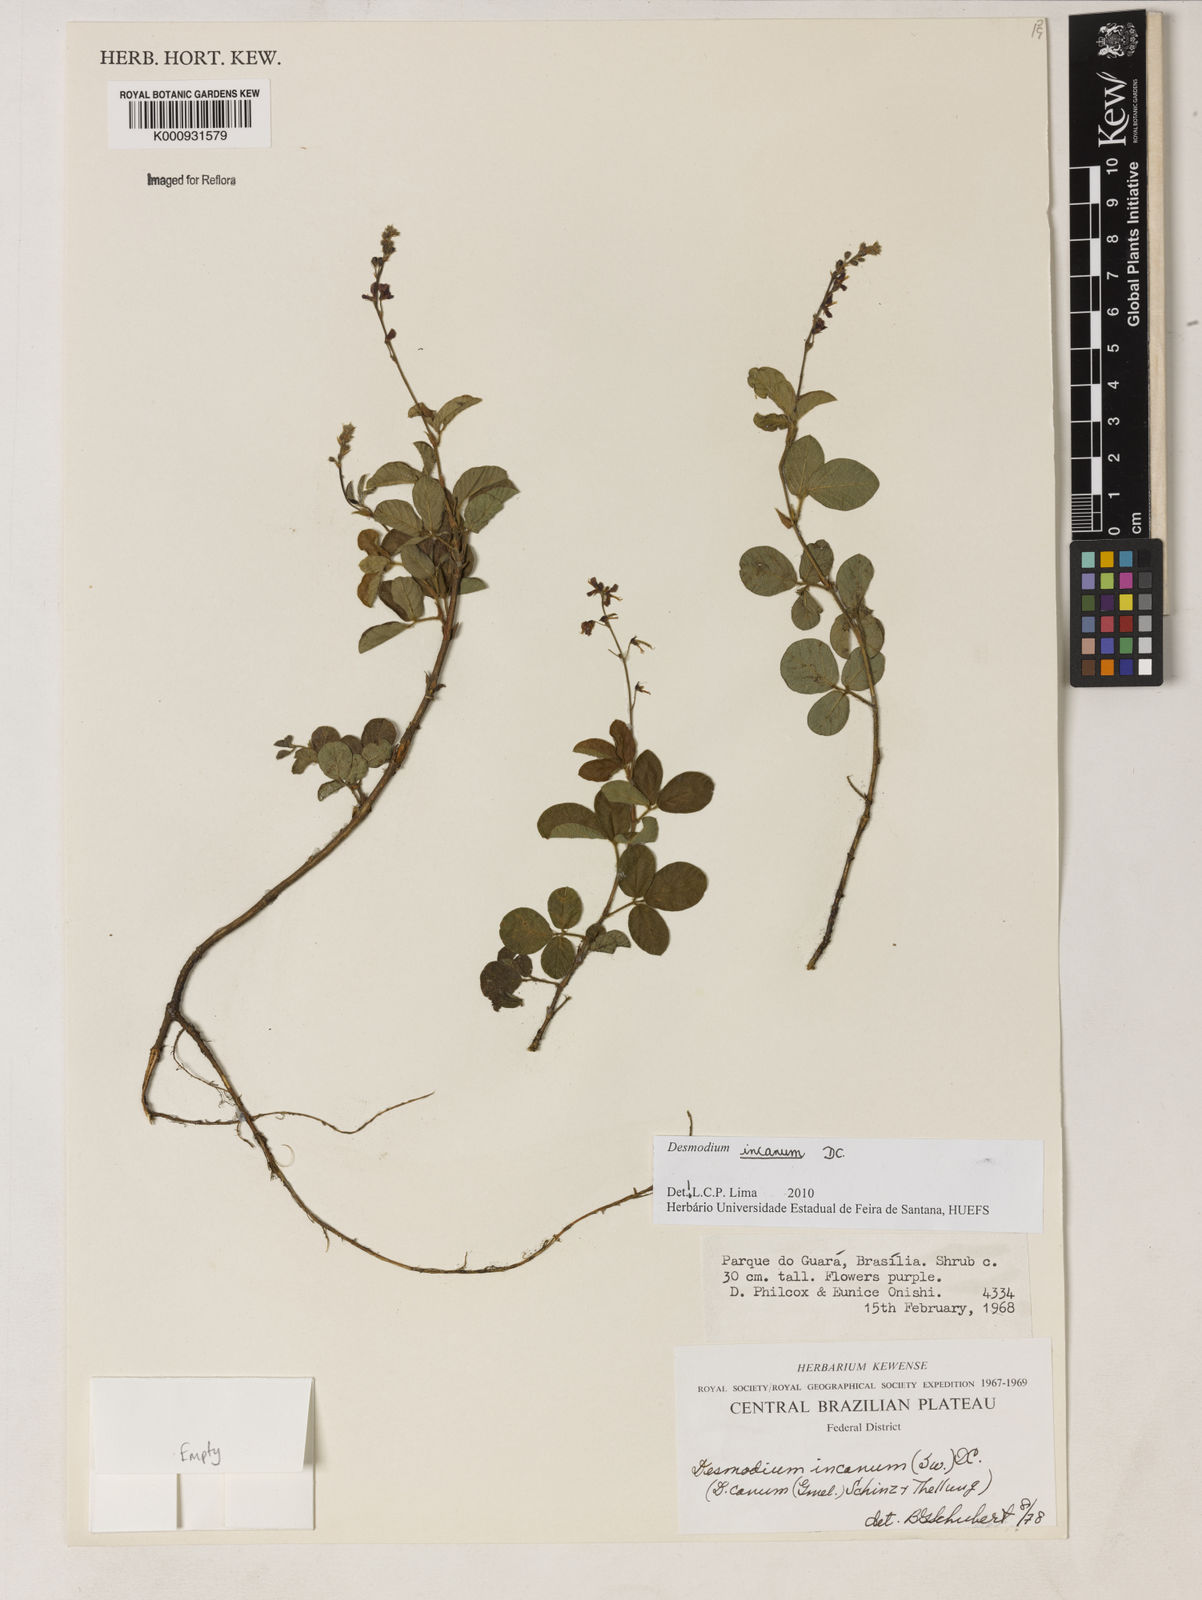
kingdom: Plantae
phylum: Tracheophyta
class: Magnoliopsida
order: Fabales
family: Fabaceae
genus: Desmodium
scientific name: Desmodium incanum
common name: Tickclover
